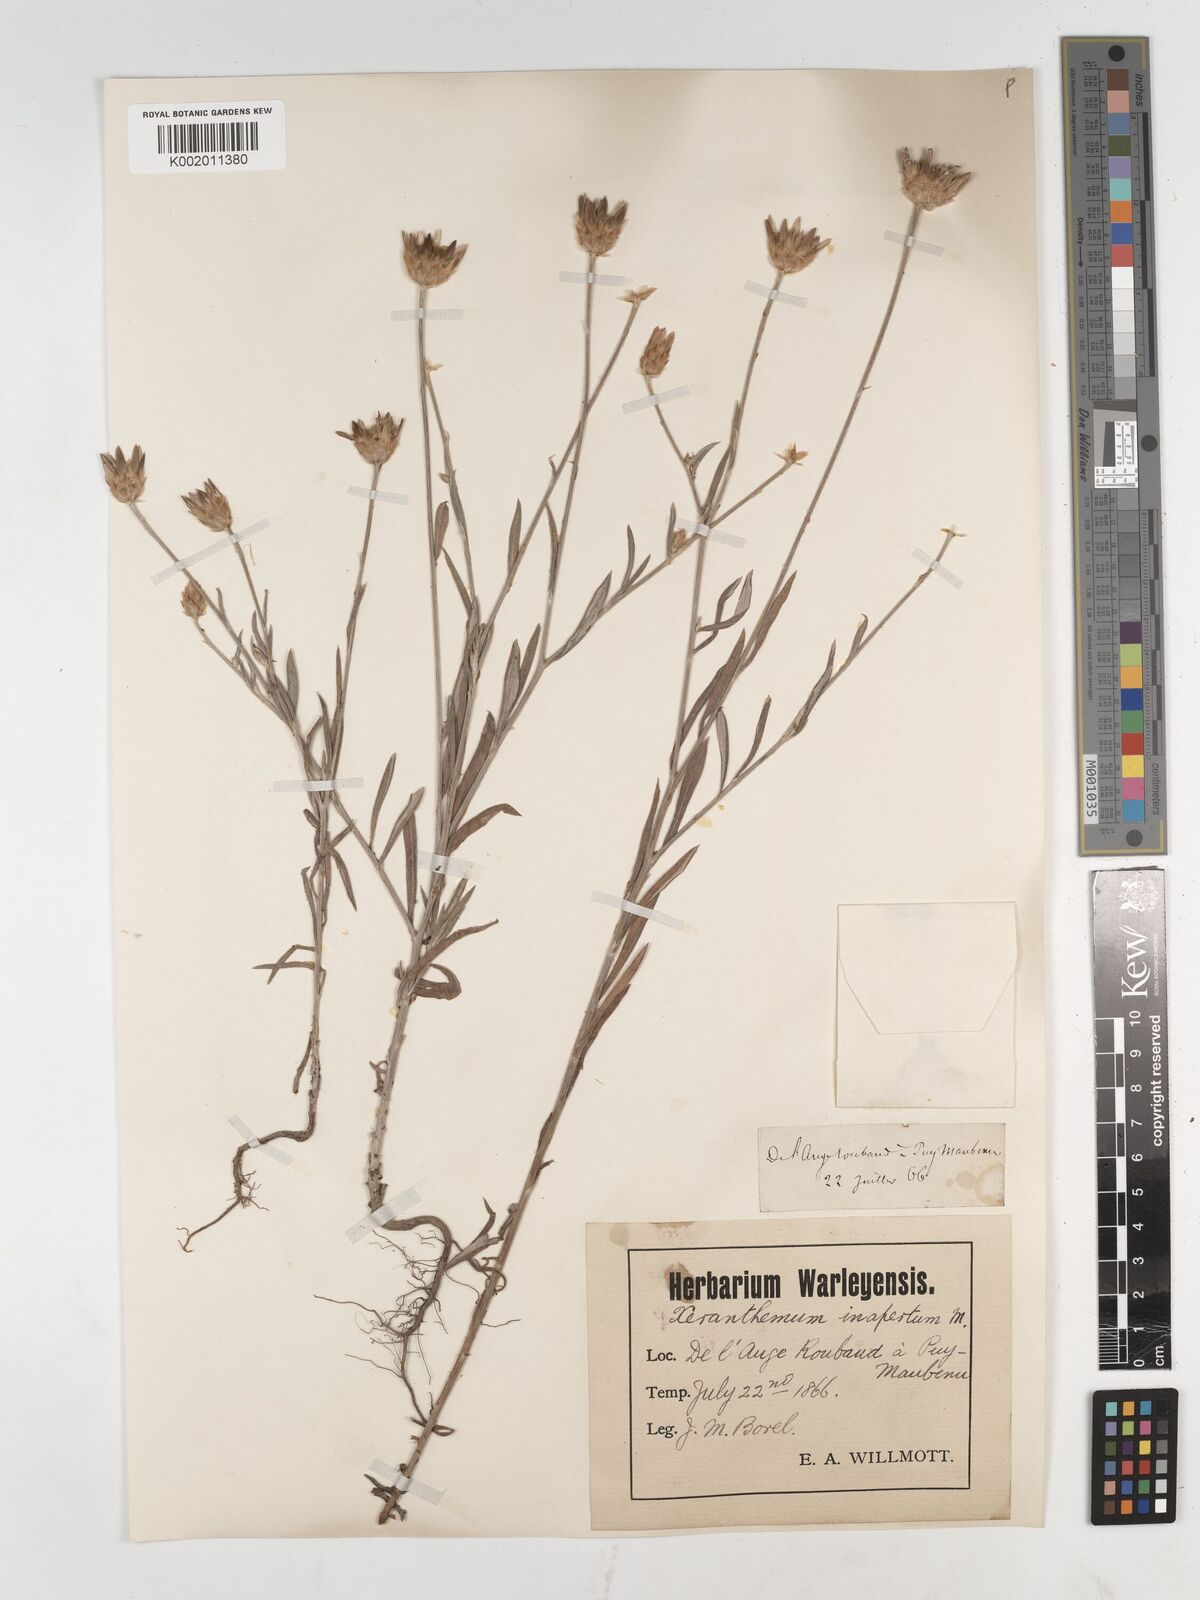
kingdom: Plantae
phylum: Tracheophyta
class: Magnoliopsida
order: Asterales
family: Asteraceae
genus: Xeranthemum
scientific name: Xeranthemum inapertum
